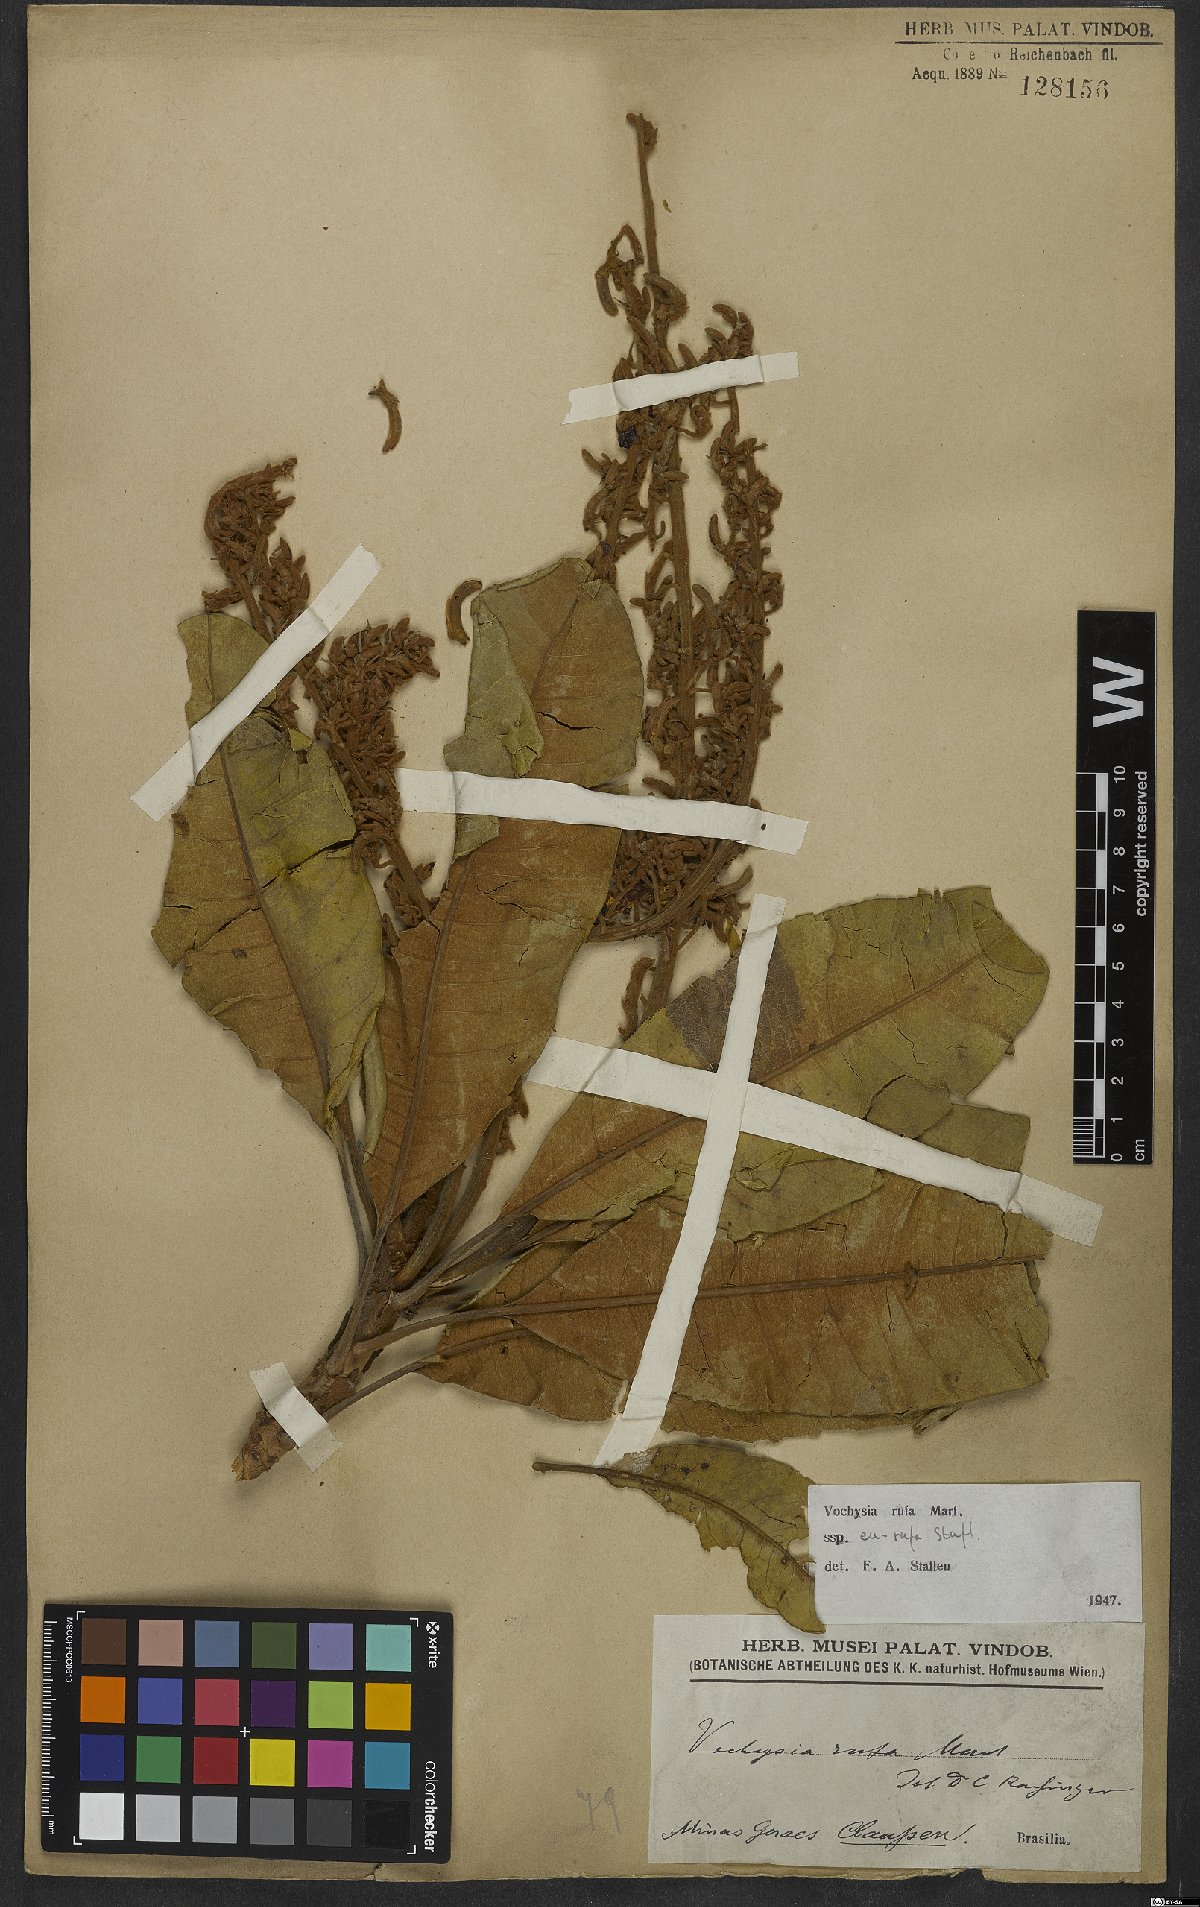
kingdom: Plantae
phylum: Tracheophyta
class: Magnoliopsida
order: Myrtales
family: Vochysiaceae
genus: Vochysia
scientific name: Vochysia rufa
